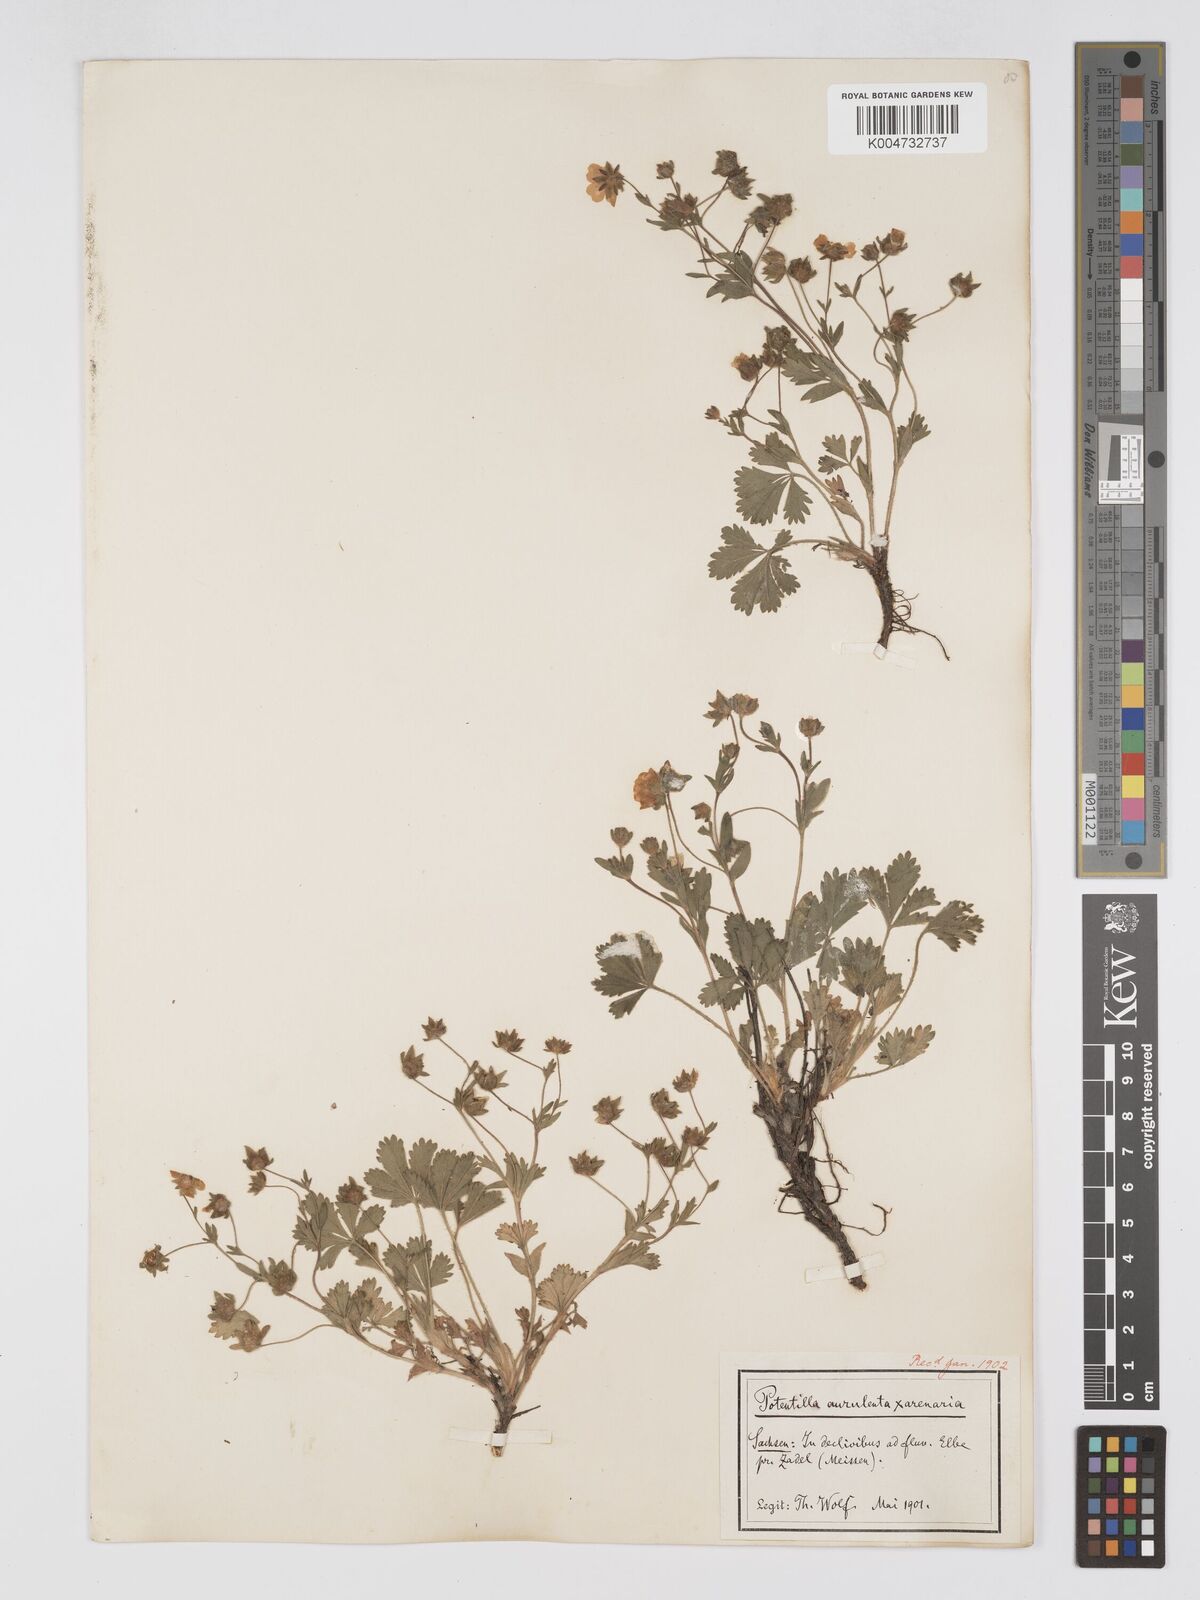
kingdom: Plantae
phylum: Tracheophyta
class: Magnoliopsida
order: Rosales
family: Rosaceae
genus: Potentilla
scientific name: Potentilla cinerea
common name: Ashy cinquefoil
